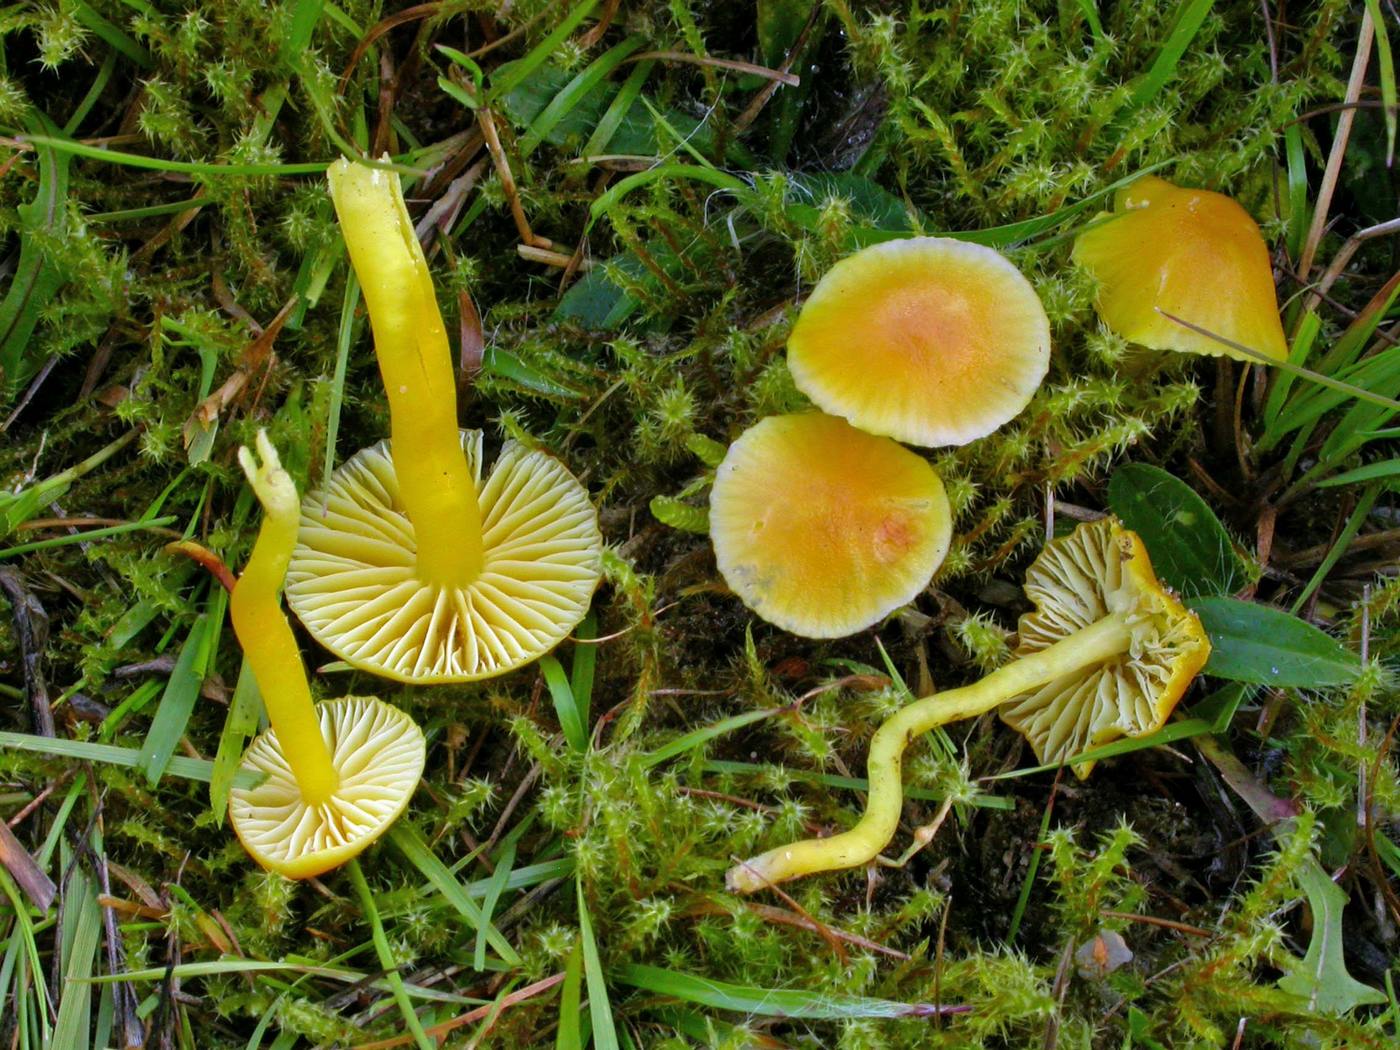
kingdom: Fungi
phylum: Basidiomycota
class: Agaricomycetes
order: Agaricales
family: Hygrophoraceae
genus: Hygrocybe
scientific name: Hygrocybe ceracea
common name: voksgul vokshat
